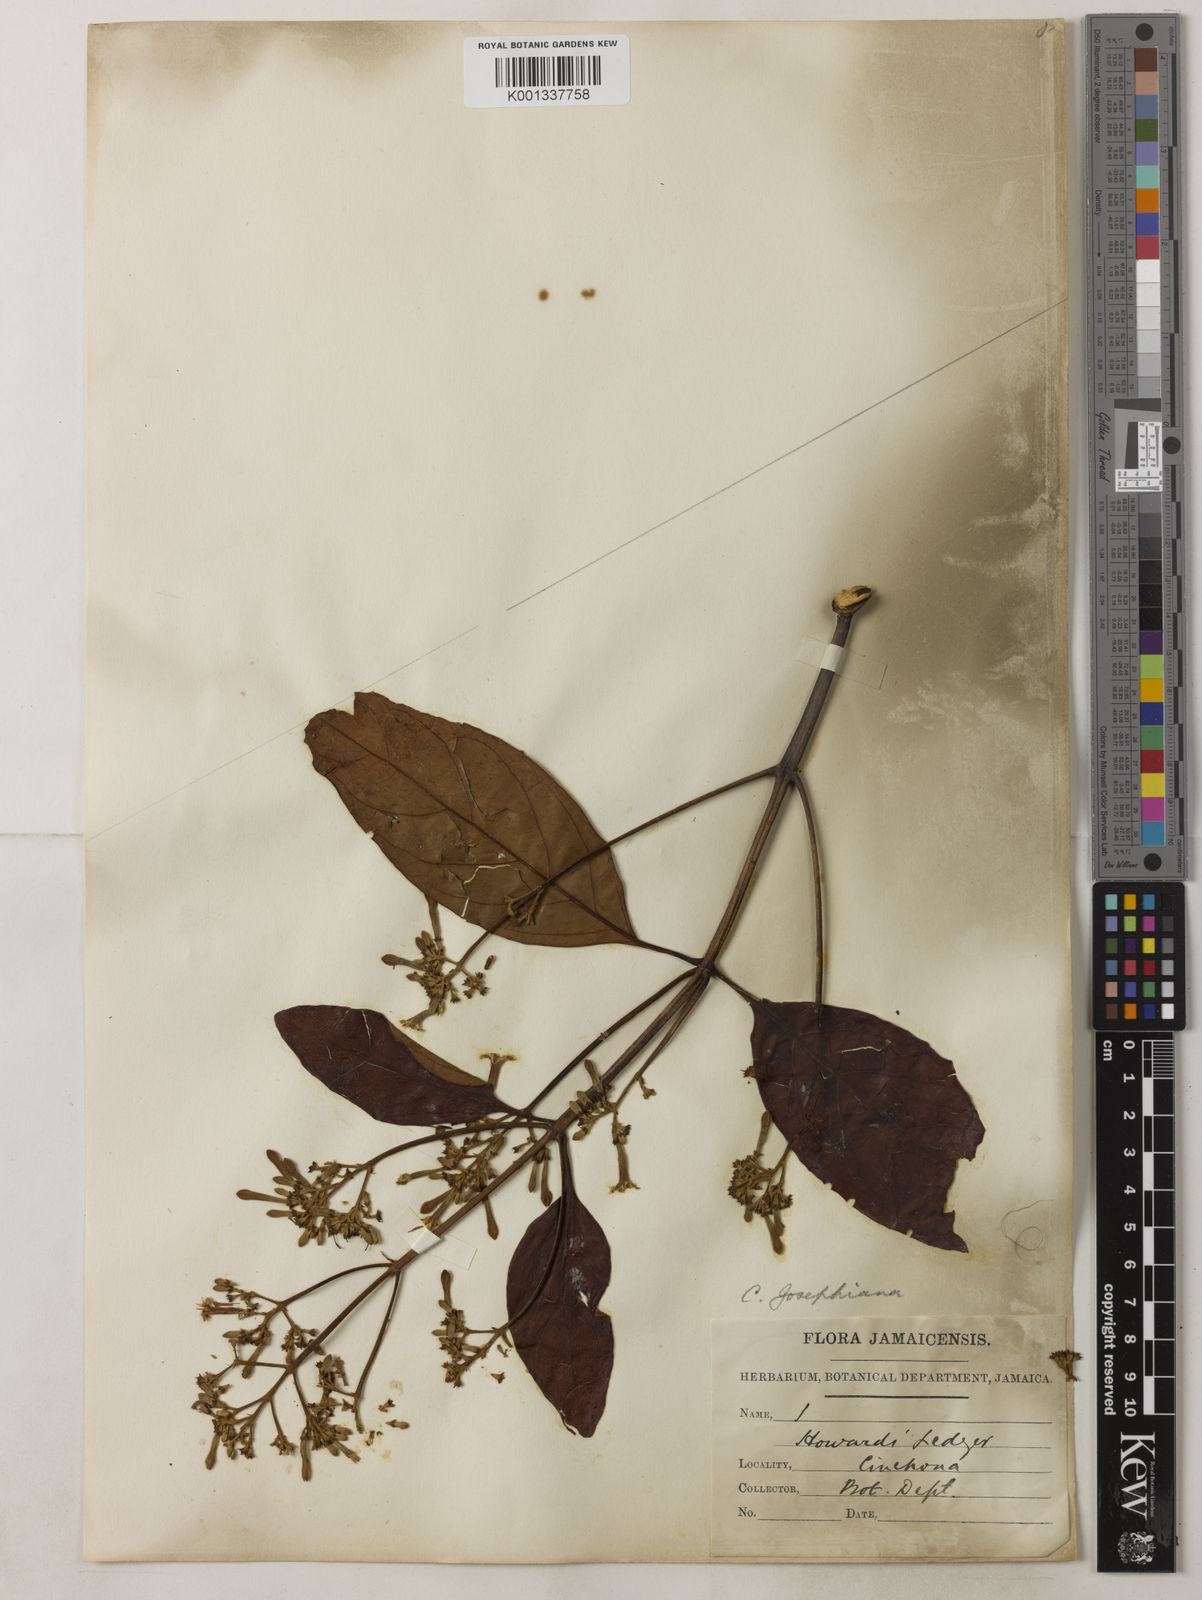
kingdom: Plantae
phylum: Tracheophyta
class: Magnoliopsida
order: Gentianales
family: Rubiaceae
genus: Cinchona
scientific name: Cinchona calisaya
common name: Ledgerbark
